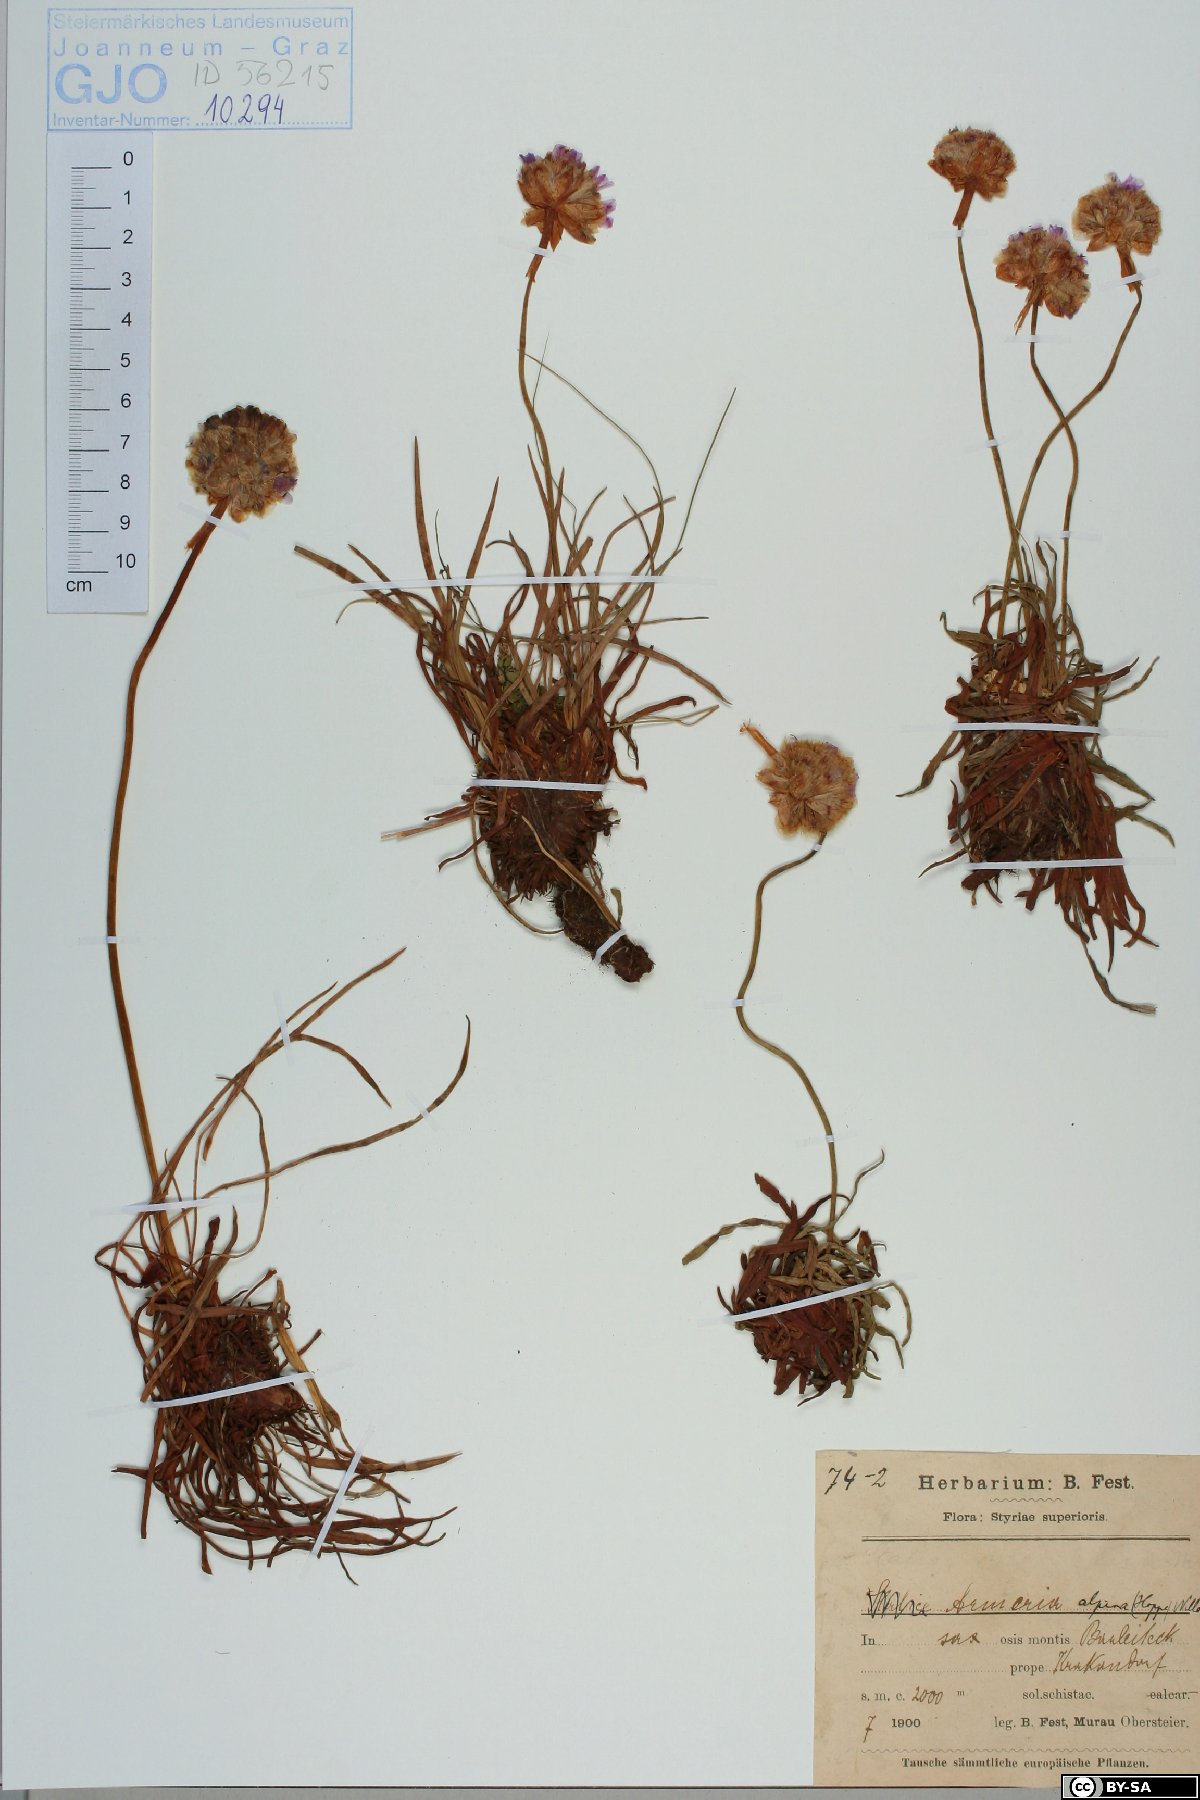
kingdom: Plantae
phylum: Tracheophyta
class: Magnoliopsida
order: Caryophyllales
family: Plumbaginaceae
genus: Armeria
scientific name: Armeria alpina
